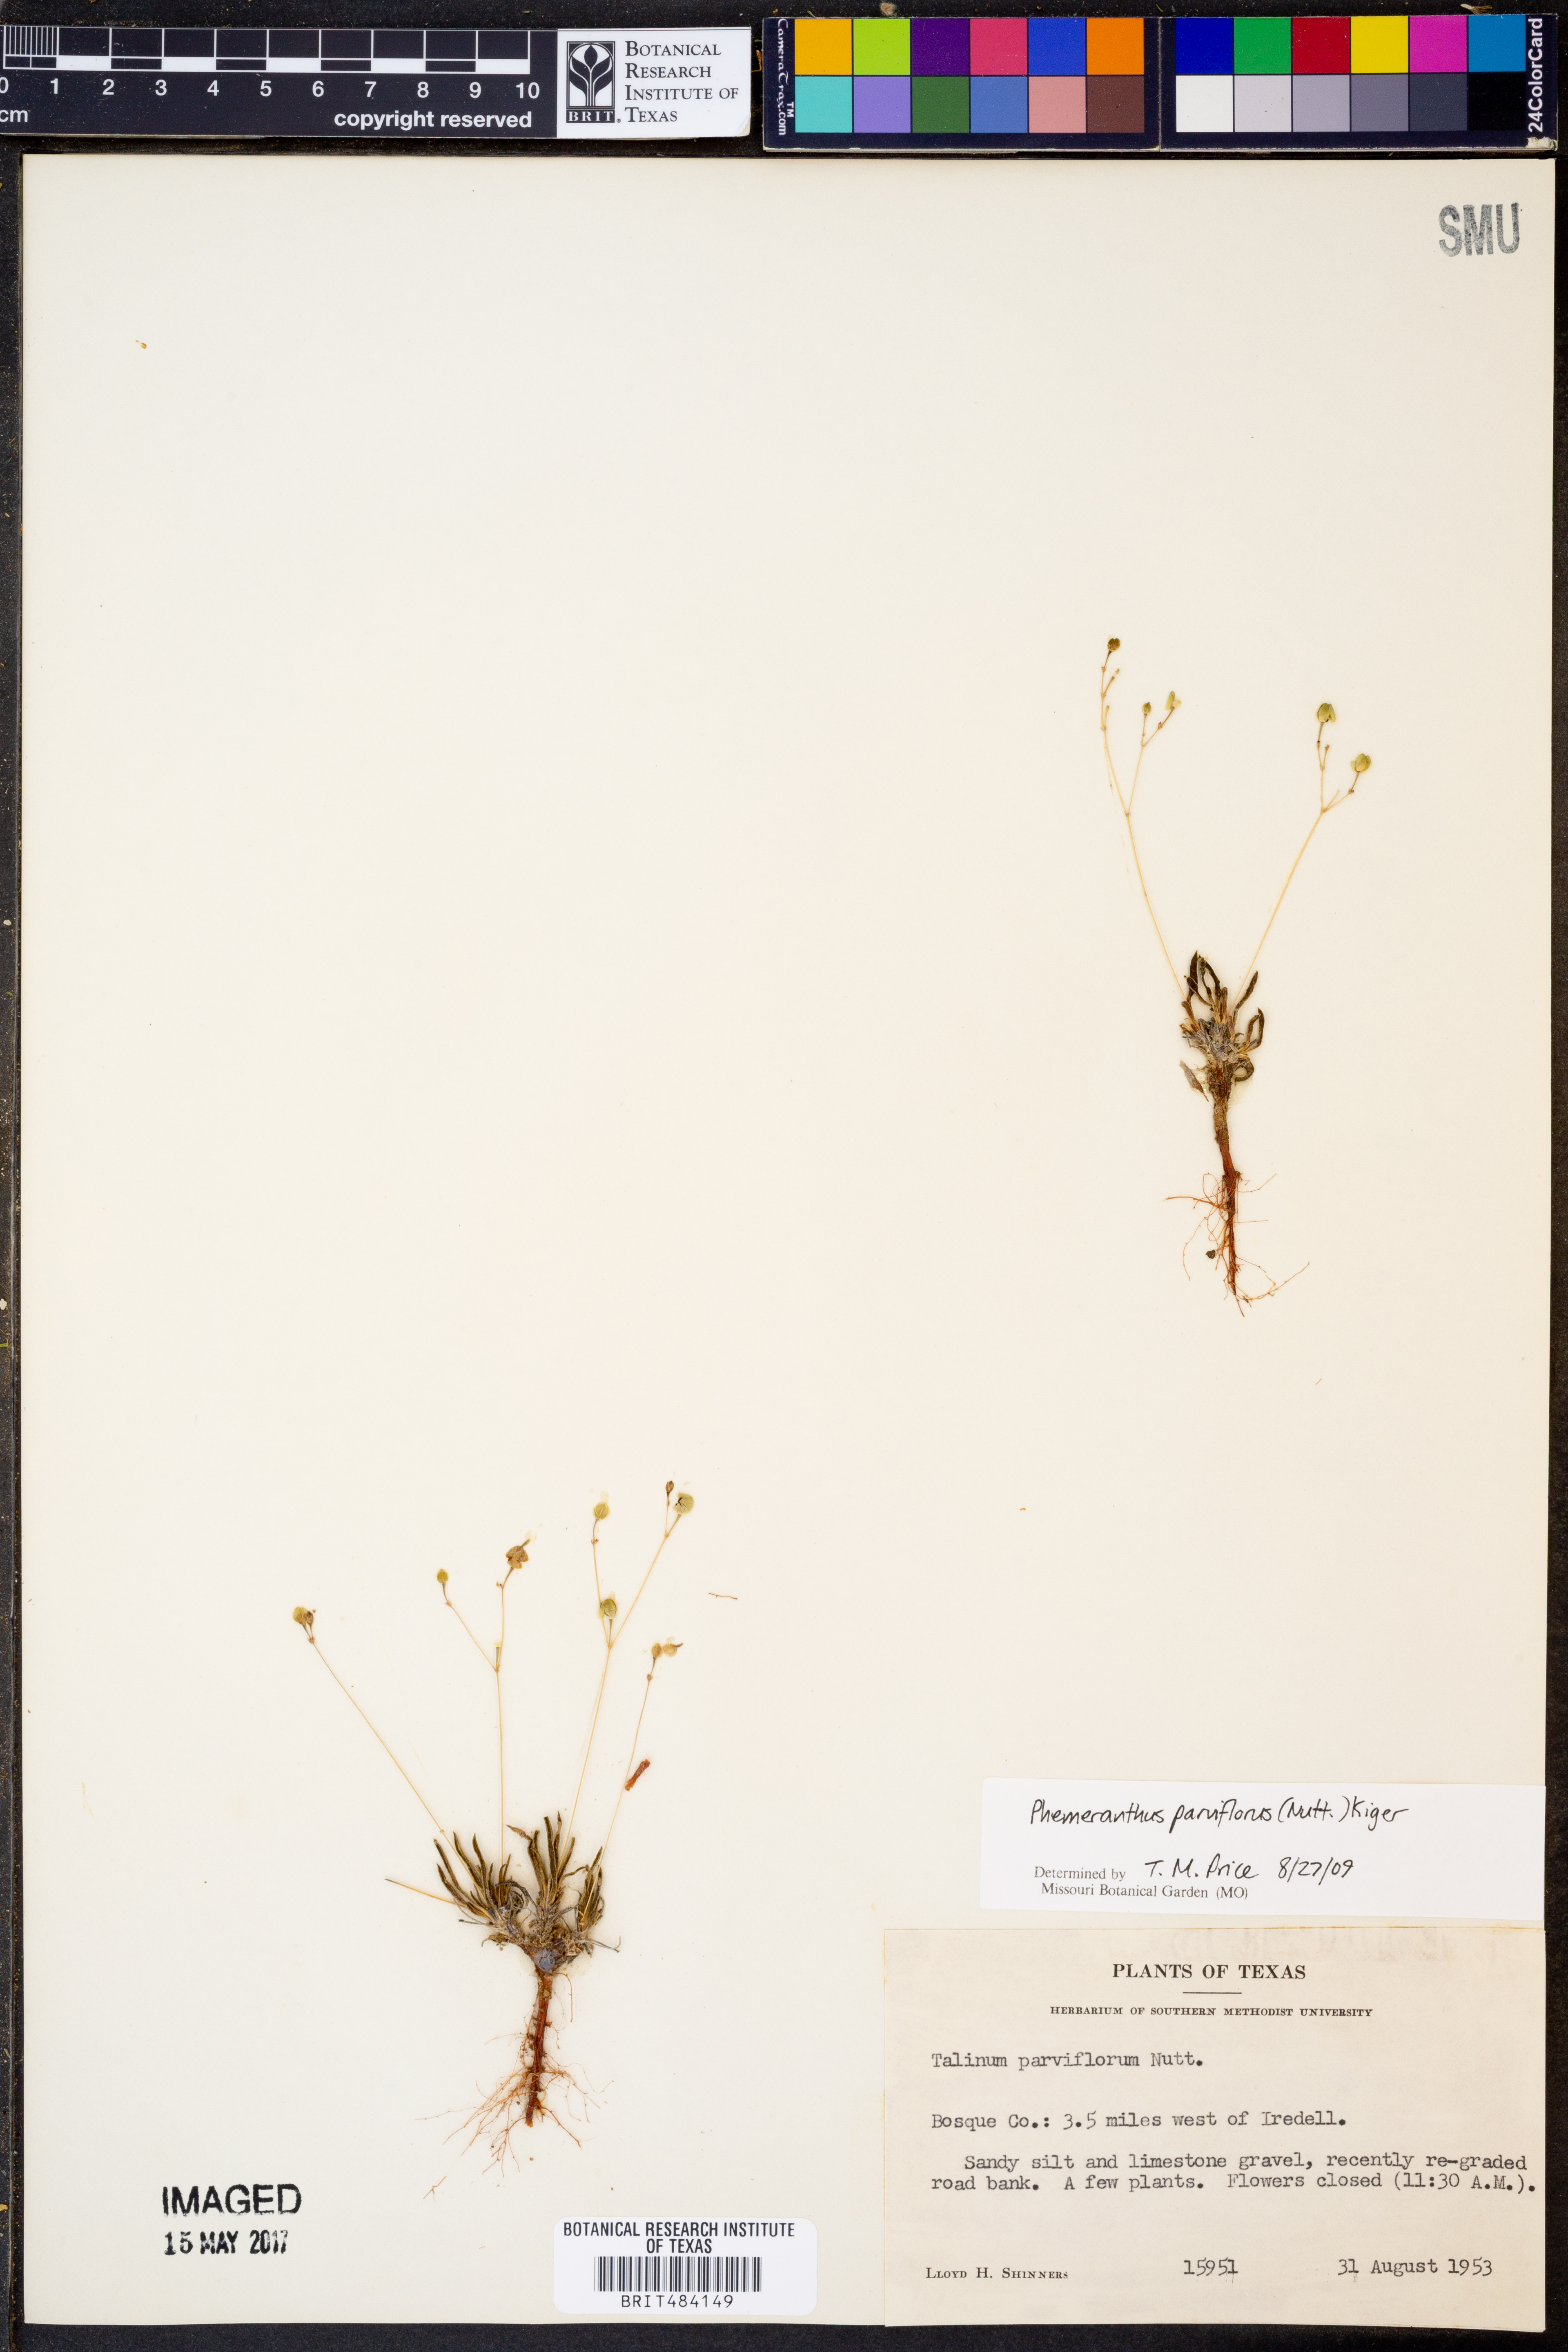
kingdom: Plantae
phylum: Tracheophyta
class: Magnoliopsida
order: Caryophyllales
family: Montiaceae
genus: Phemeranthus
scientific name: Phemeranthus parviflorus
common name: Sunbright
